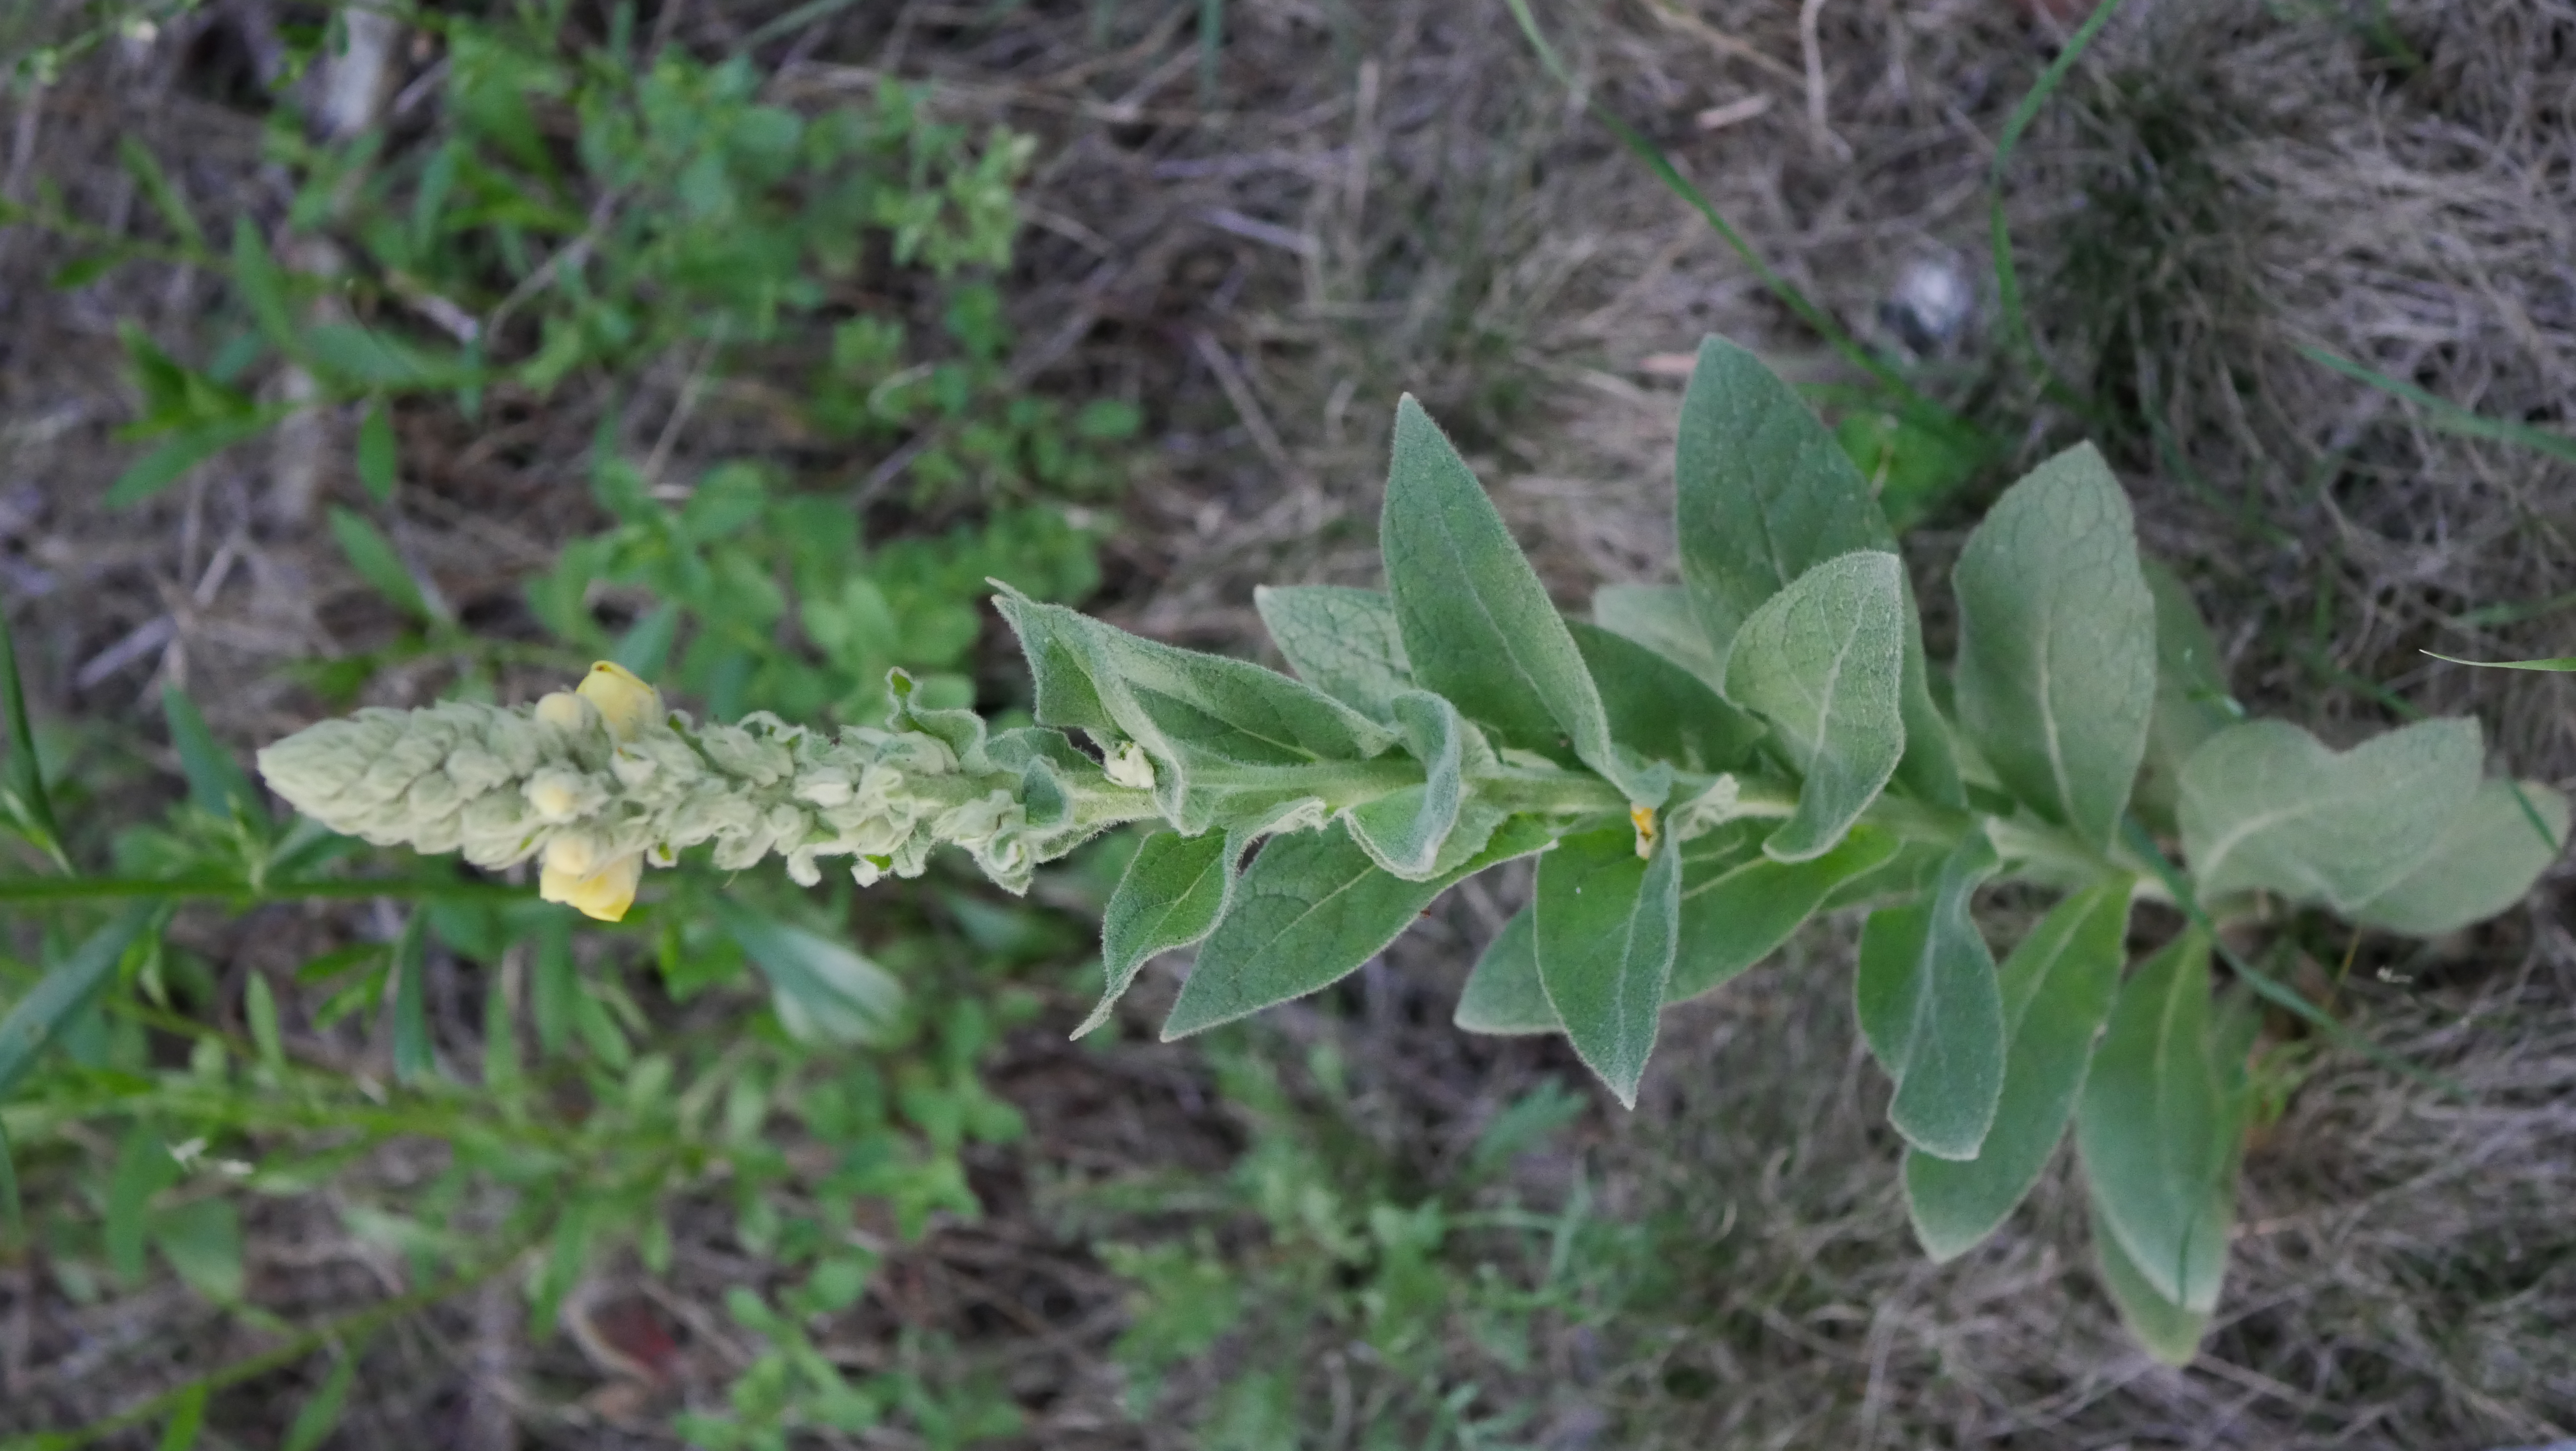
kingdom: Plantae
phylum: Tracheophyta
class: Magnoliopsida
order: Lamiales
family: Scrophulariaceae
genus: Verbascum
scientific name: Verbascum thapsus
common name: Filtbladet kongelys
